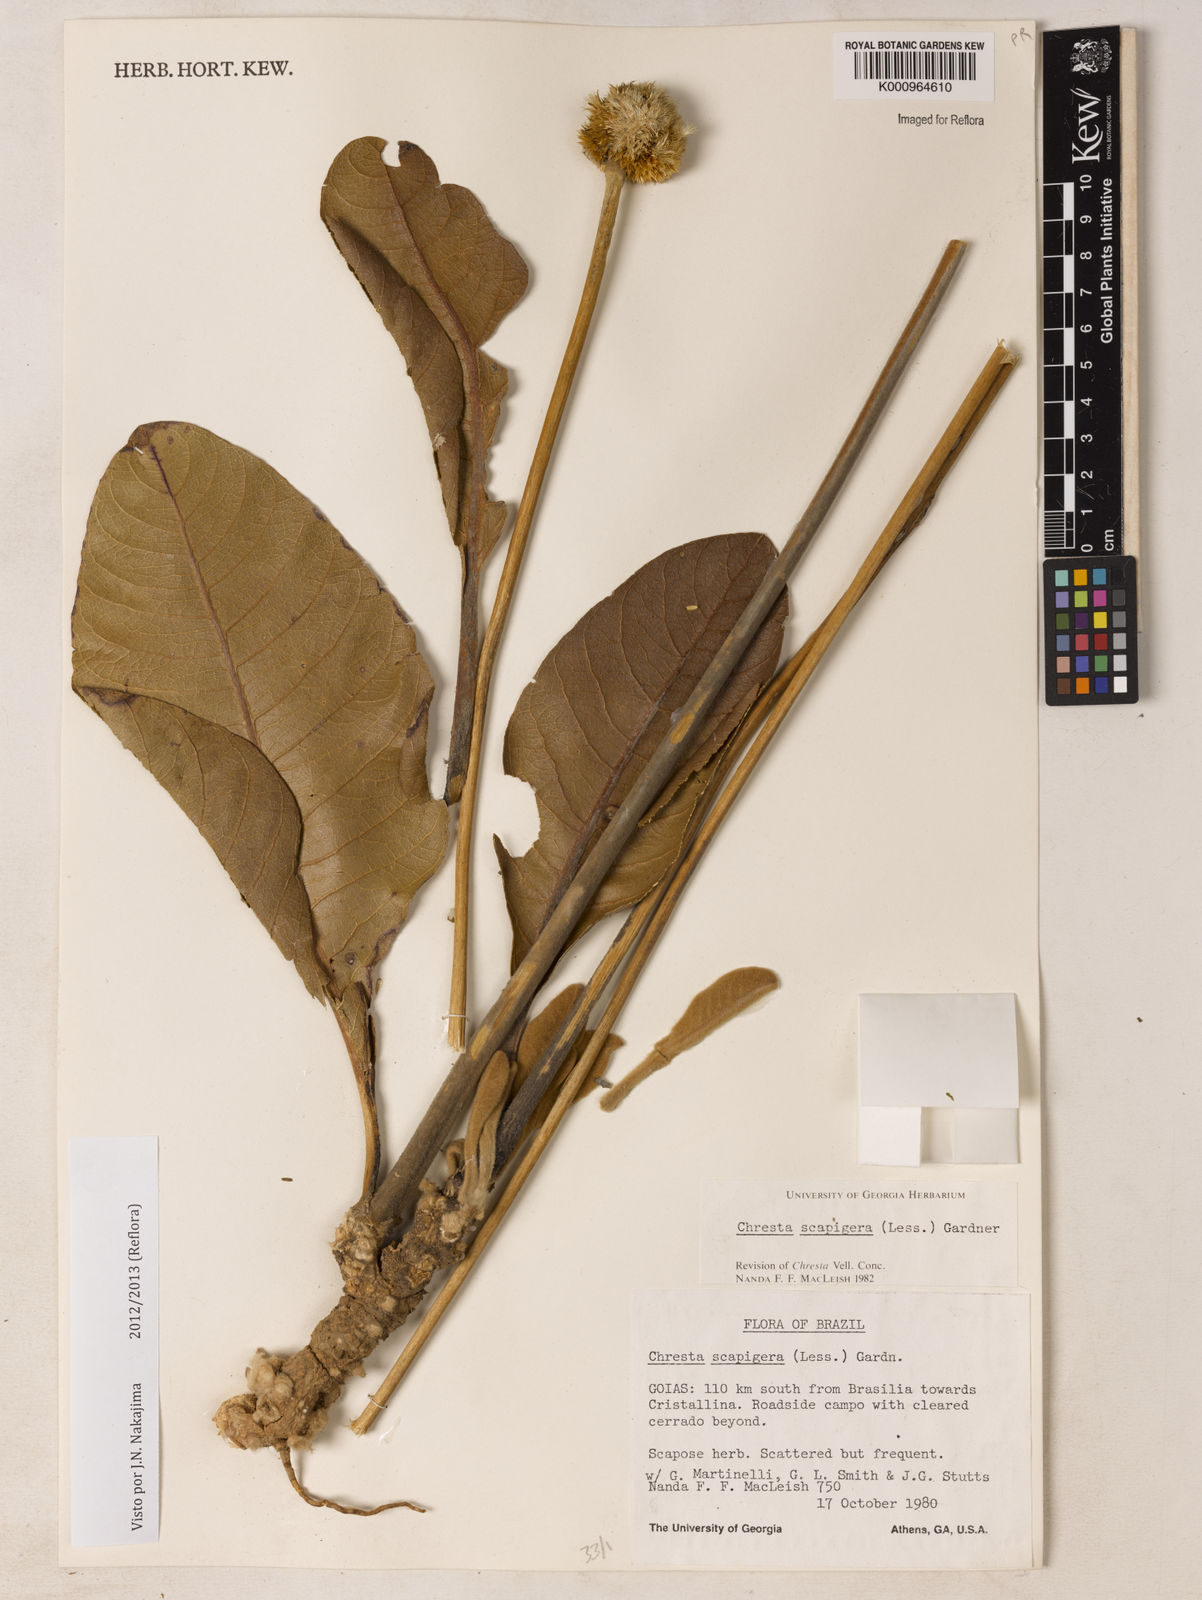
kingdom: Plantae
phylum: Tracheophyta
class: Magnoliopsida
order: Asterales
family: Asteraceae
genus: Chresta
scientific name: Chresta scapigera
